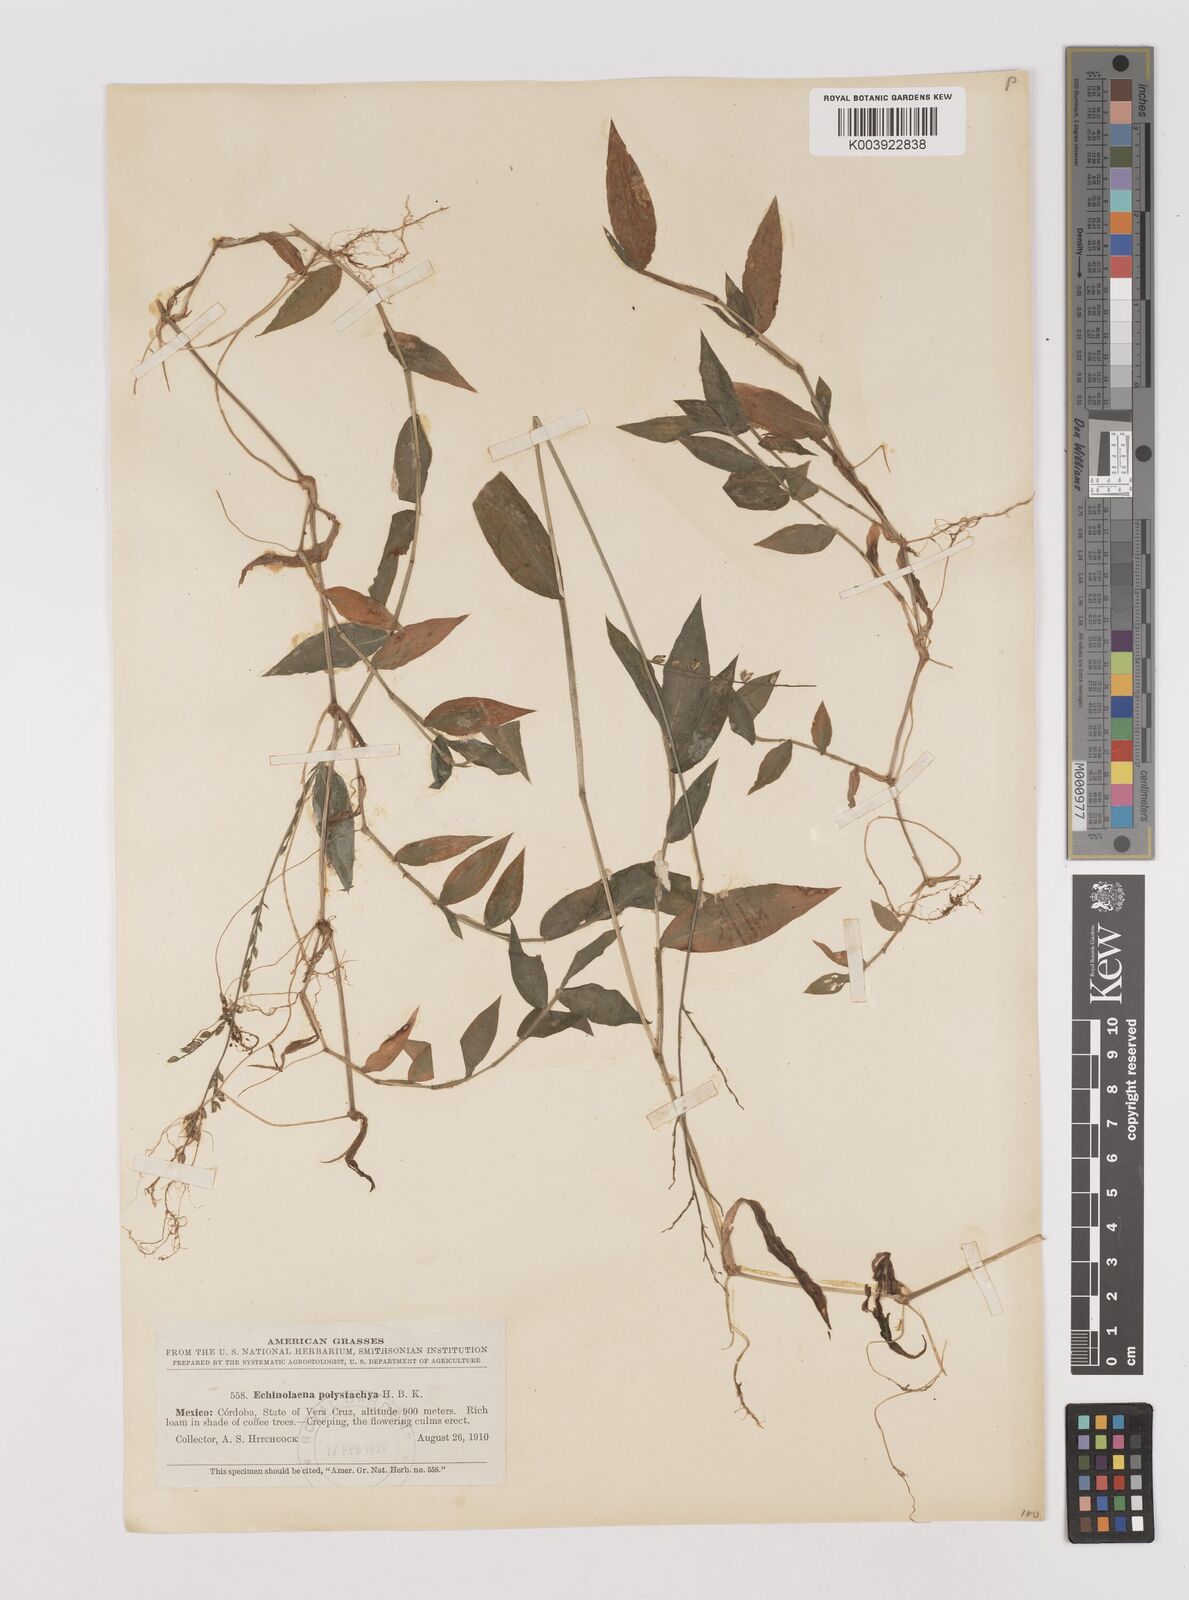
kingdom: Plantae
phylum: Tracheophyta
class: Liliopsida
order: Poales
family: Poaceae
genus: Pseudechinolaena
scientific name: Pseudechinolaena polystachya
